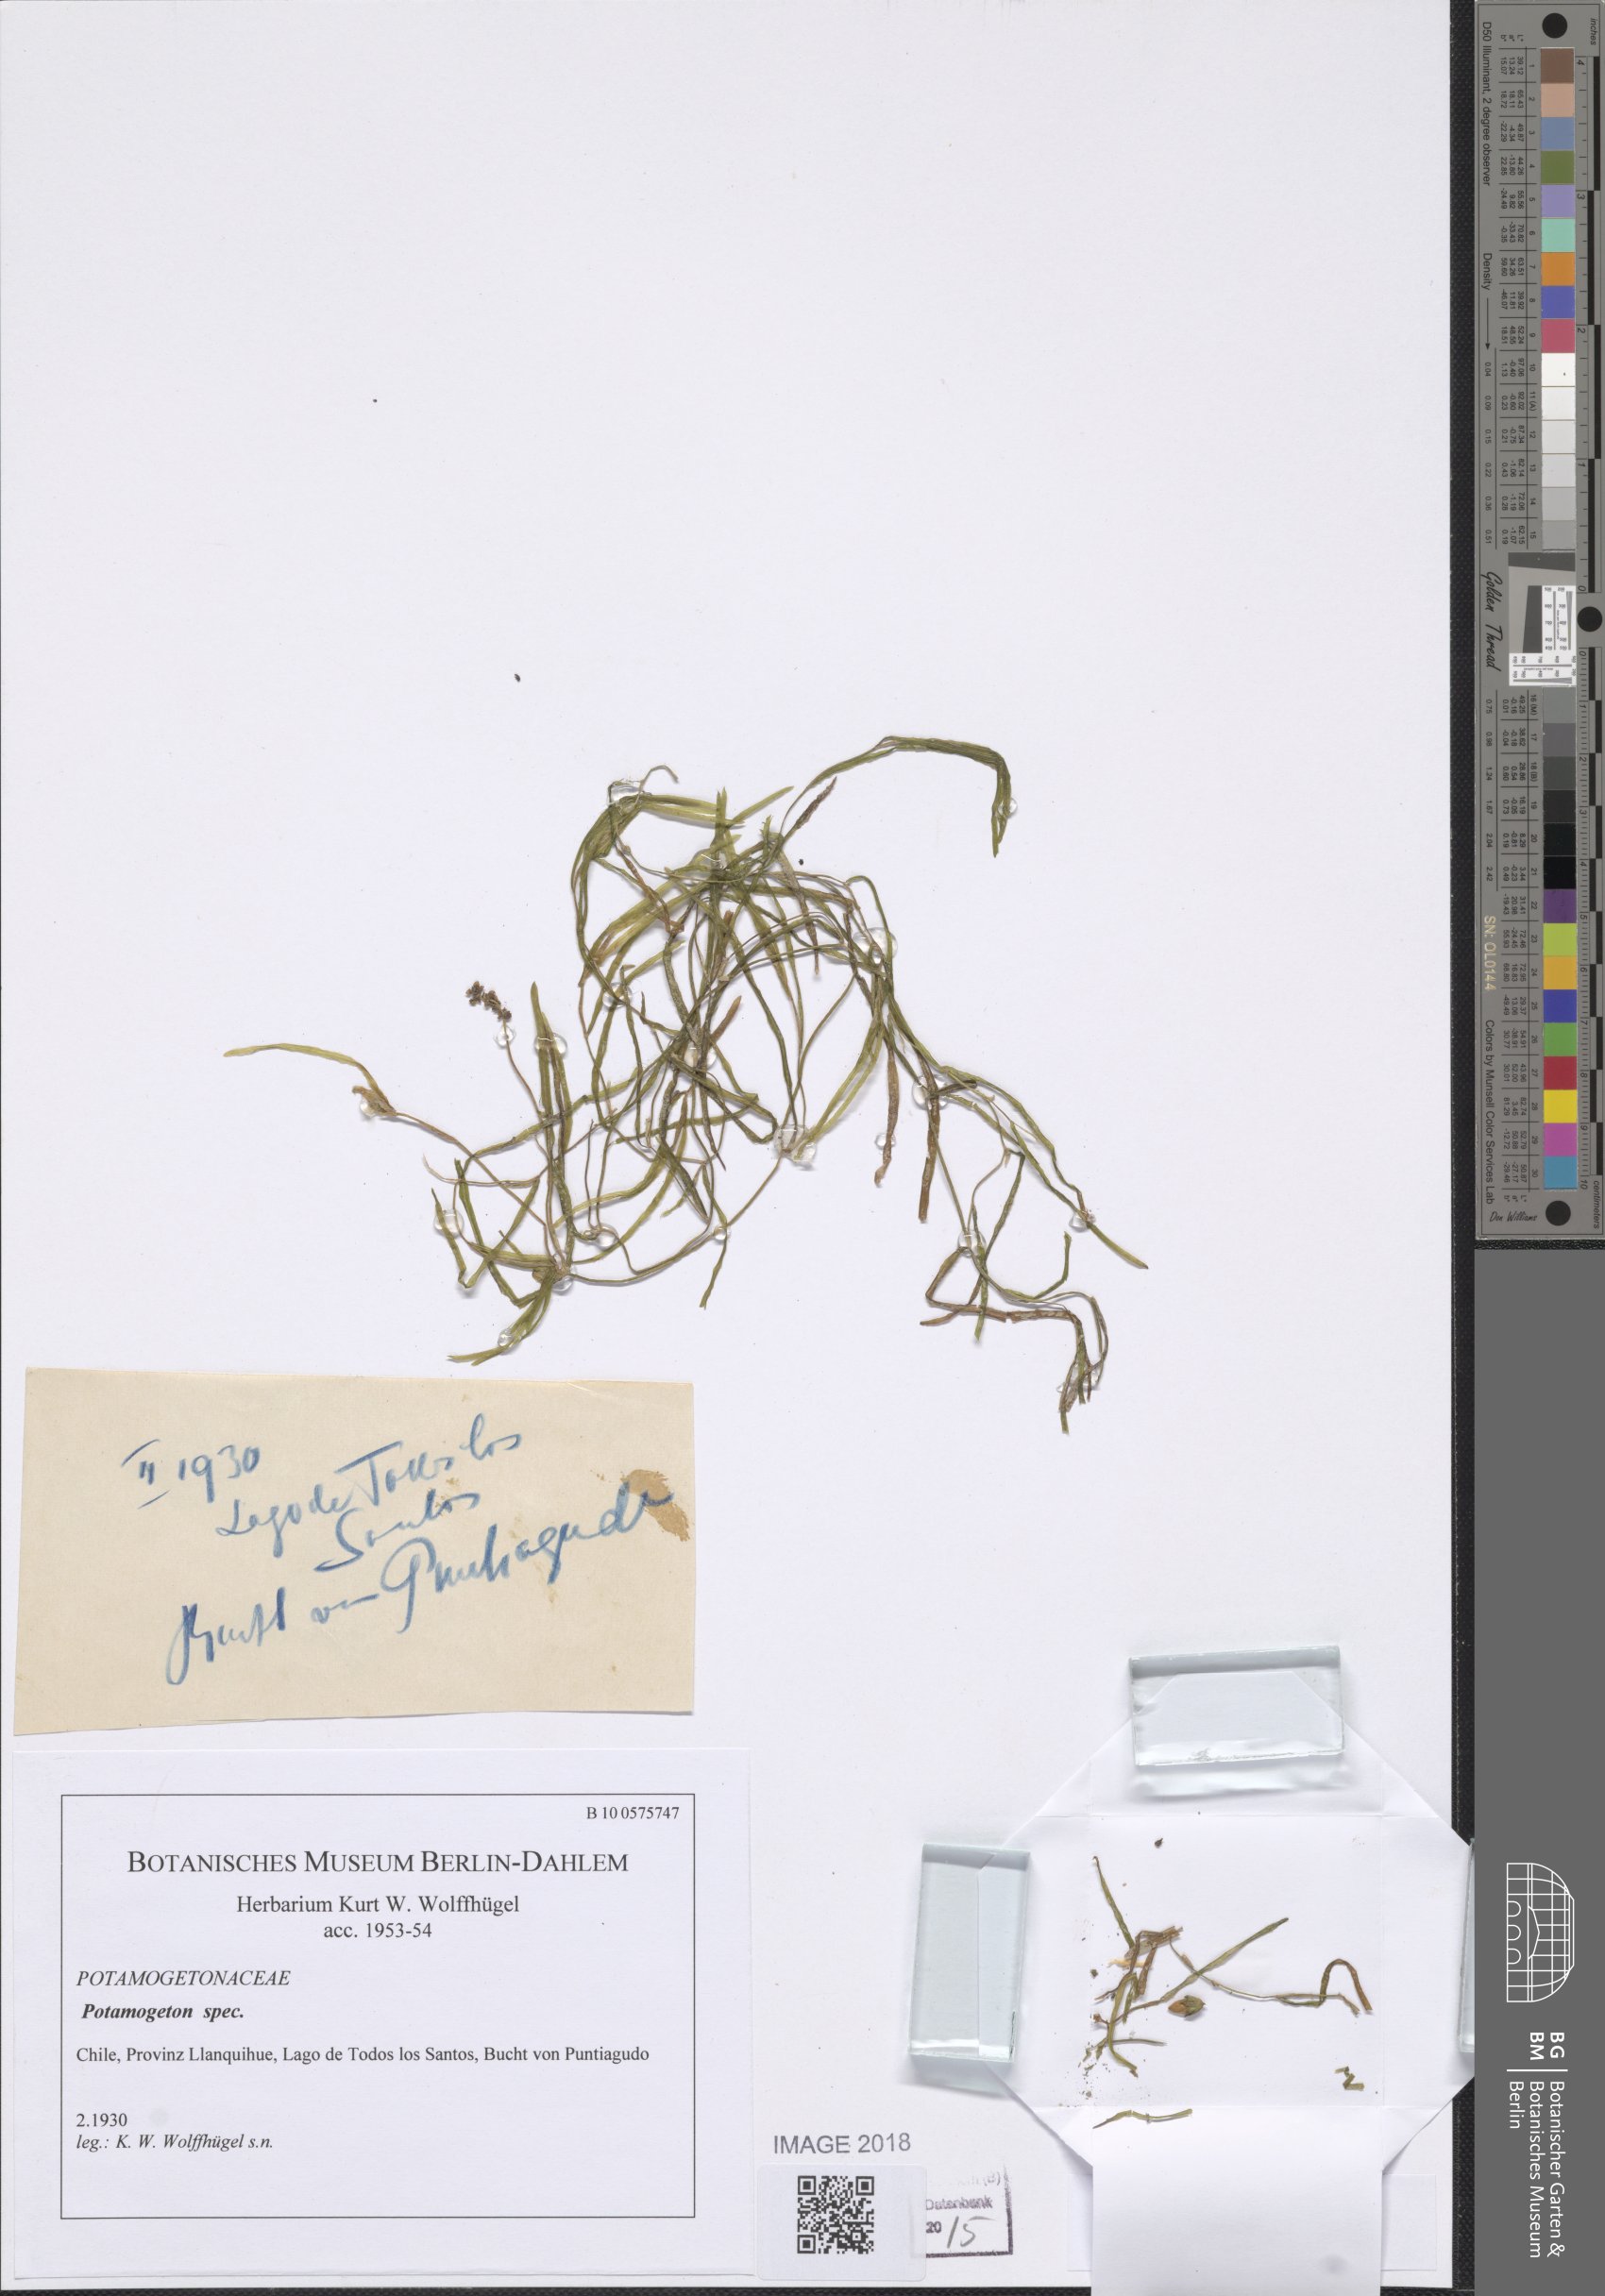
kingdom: Plantae
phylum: Tracheophyta
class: Liliopsida
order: Alismatales
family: Potamogetonaceae
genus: Potamogeton
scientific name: Potamogeton
